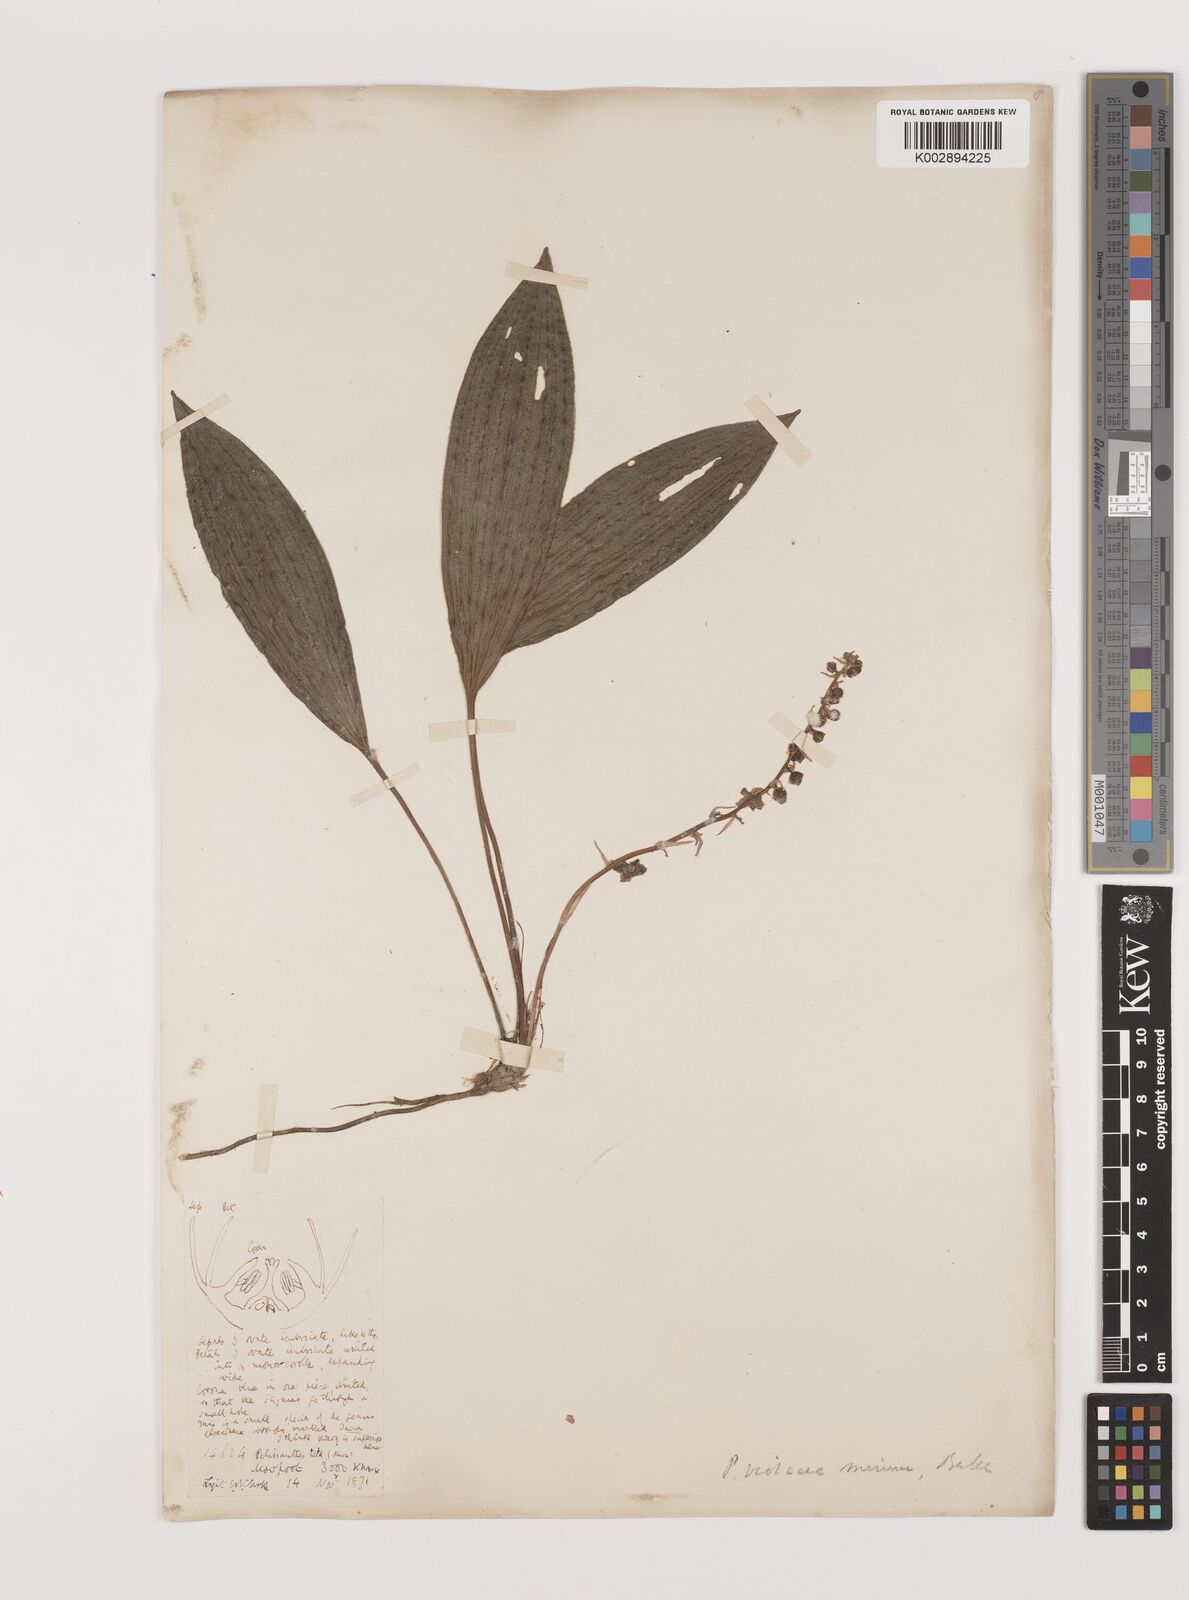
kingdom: Plantae
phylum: Tracheophyta
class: Liliopsida
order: Asparagales
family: Asparagaceae
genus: Peliosanthes
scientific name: Peliosanthes teta
